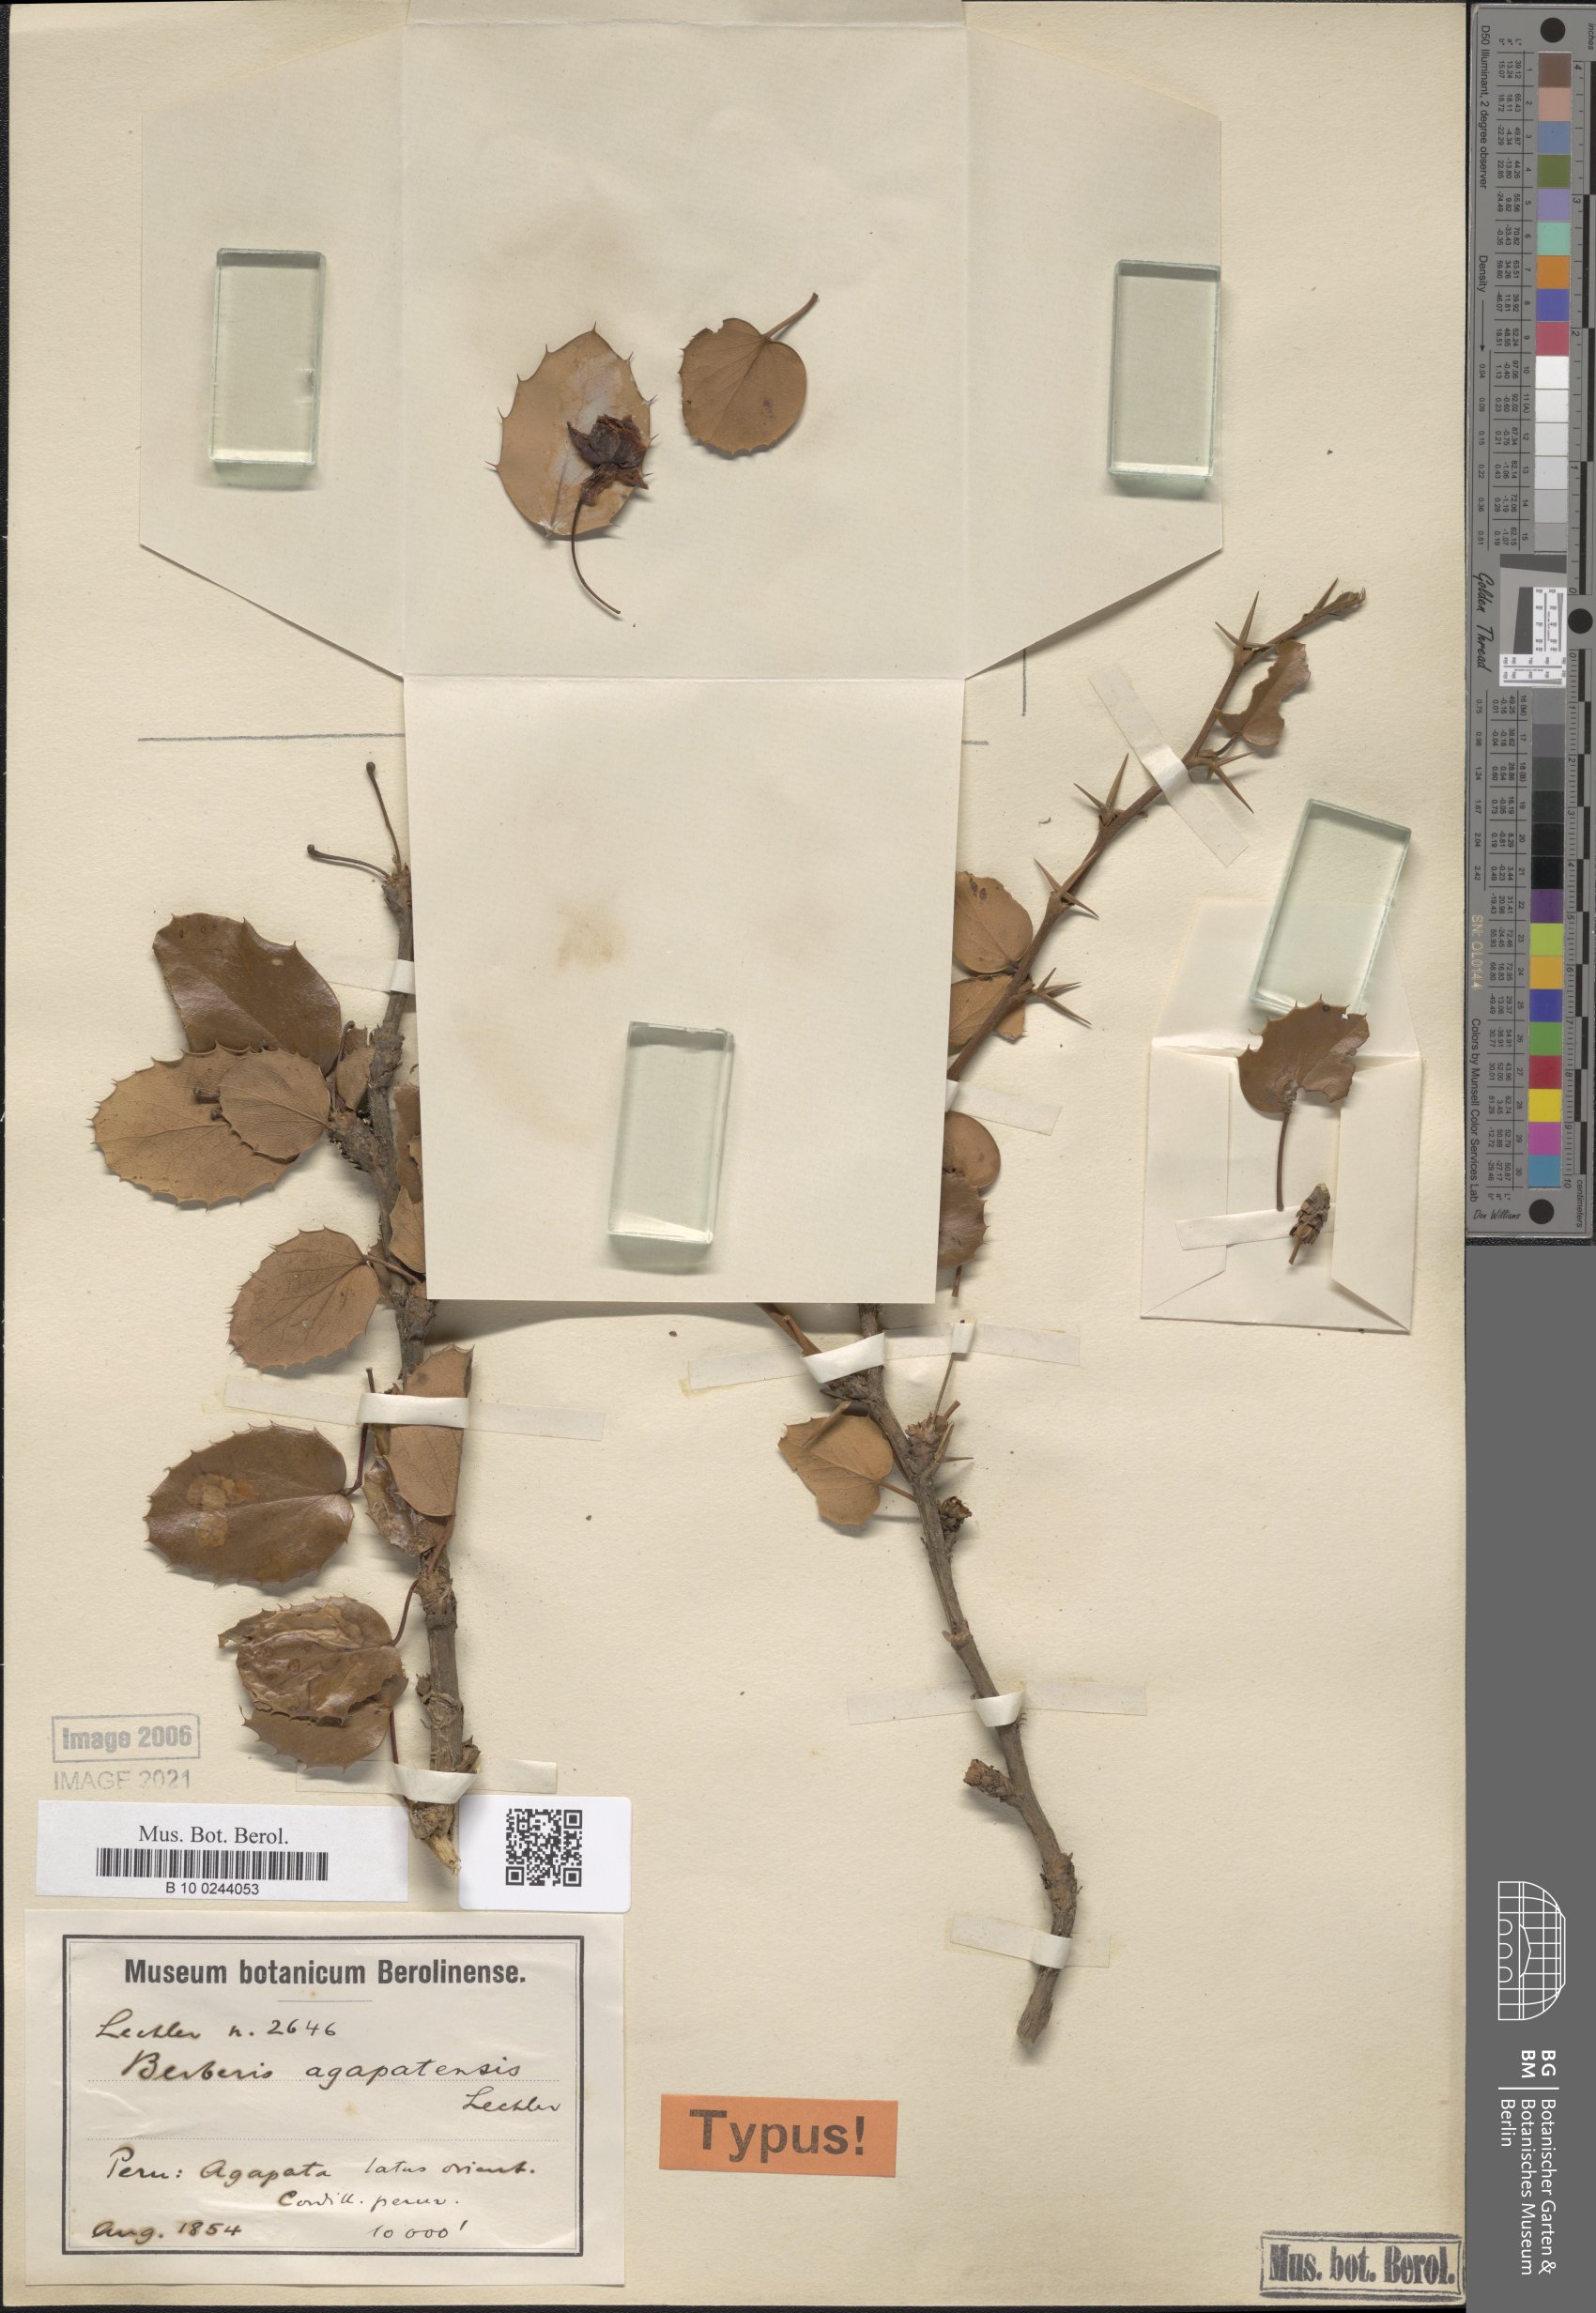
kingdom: Plantae
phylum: Tracheophyta
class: Magnoliopsida
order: Ranunculales
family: Berberidaceae
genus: Berberis
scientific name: Berberis agapatensis
